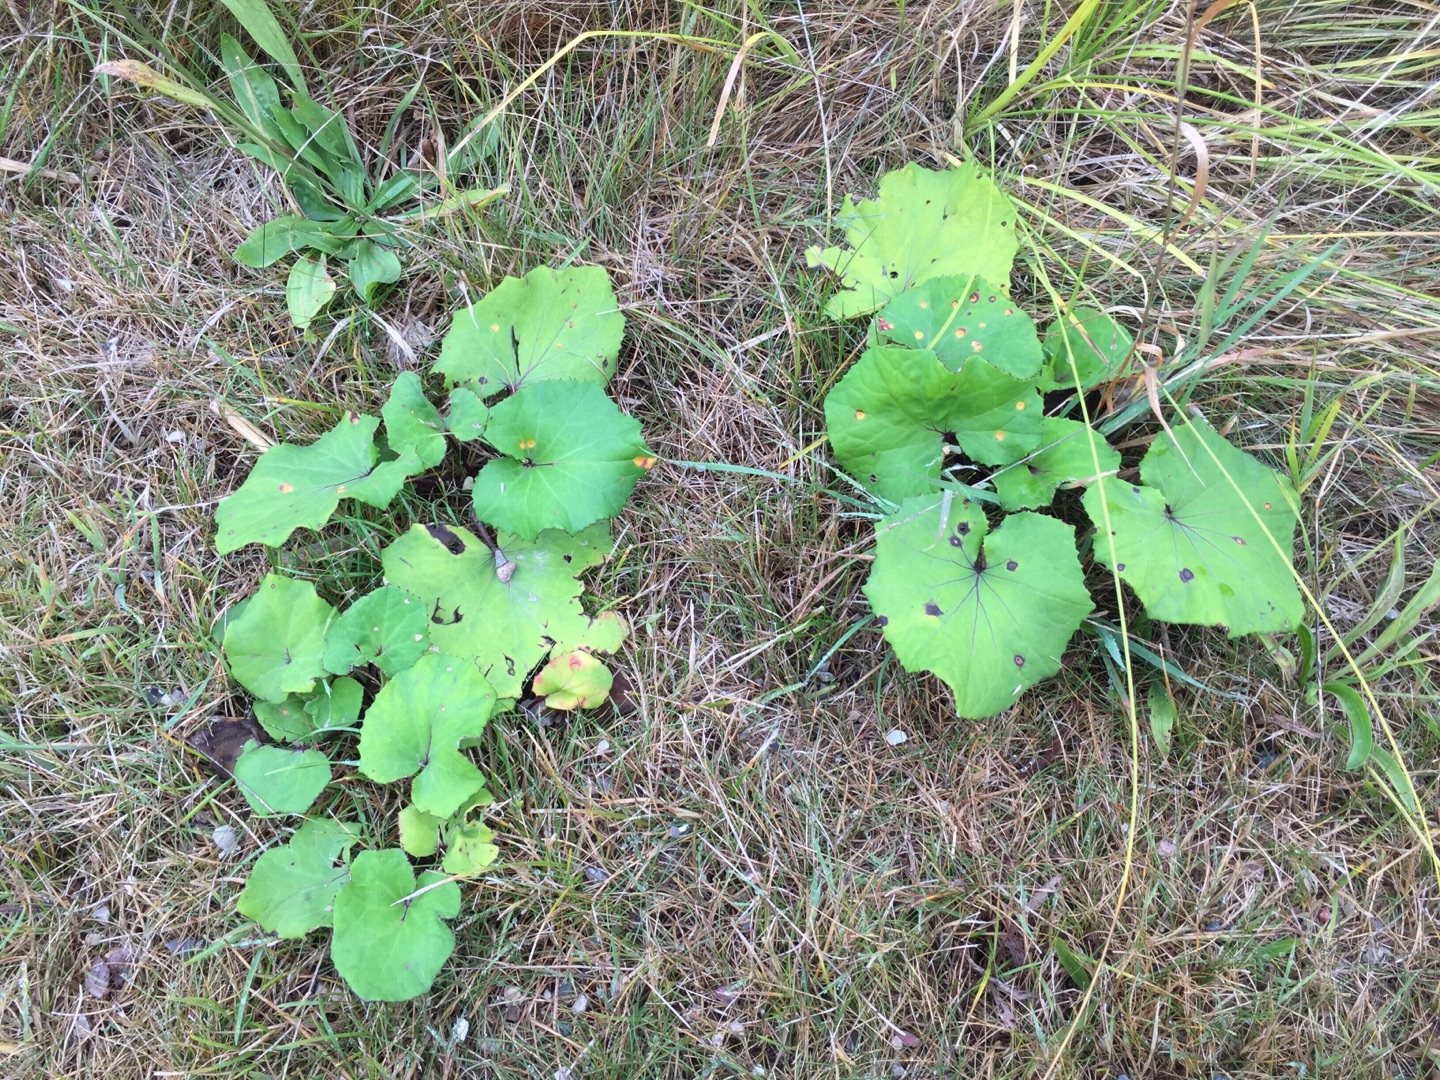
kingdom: Plantae
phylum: Tracheophyta
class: Magnoliopsida
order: Asterales
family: Asteraceae
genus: Tussilago
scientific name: Tussilago farfara
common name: Følfod
